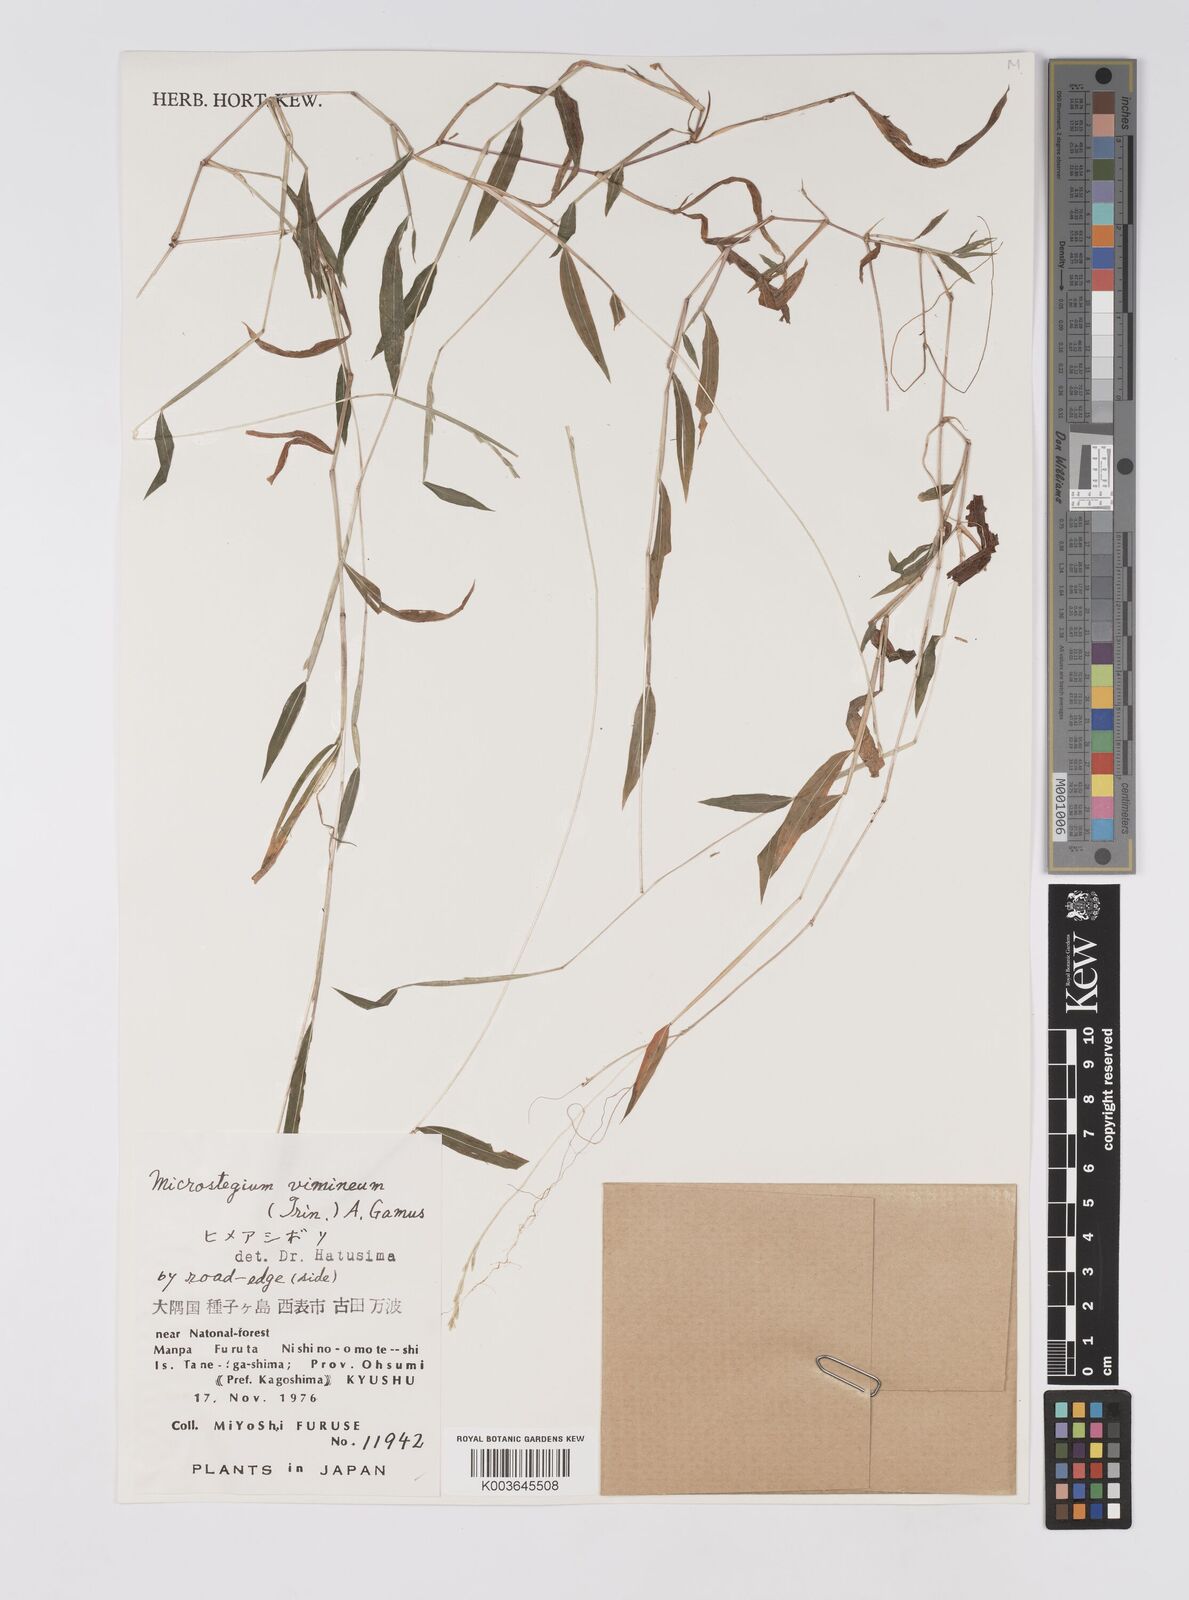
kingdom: Plantae
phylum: Tracheophyta
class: Liliopsida
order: Poales
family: Poaceae
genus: Microstegium
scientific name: Microstegium vimineum
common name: Japanese stiltgrass
